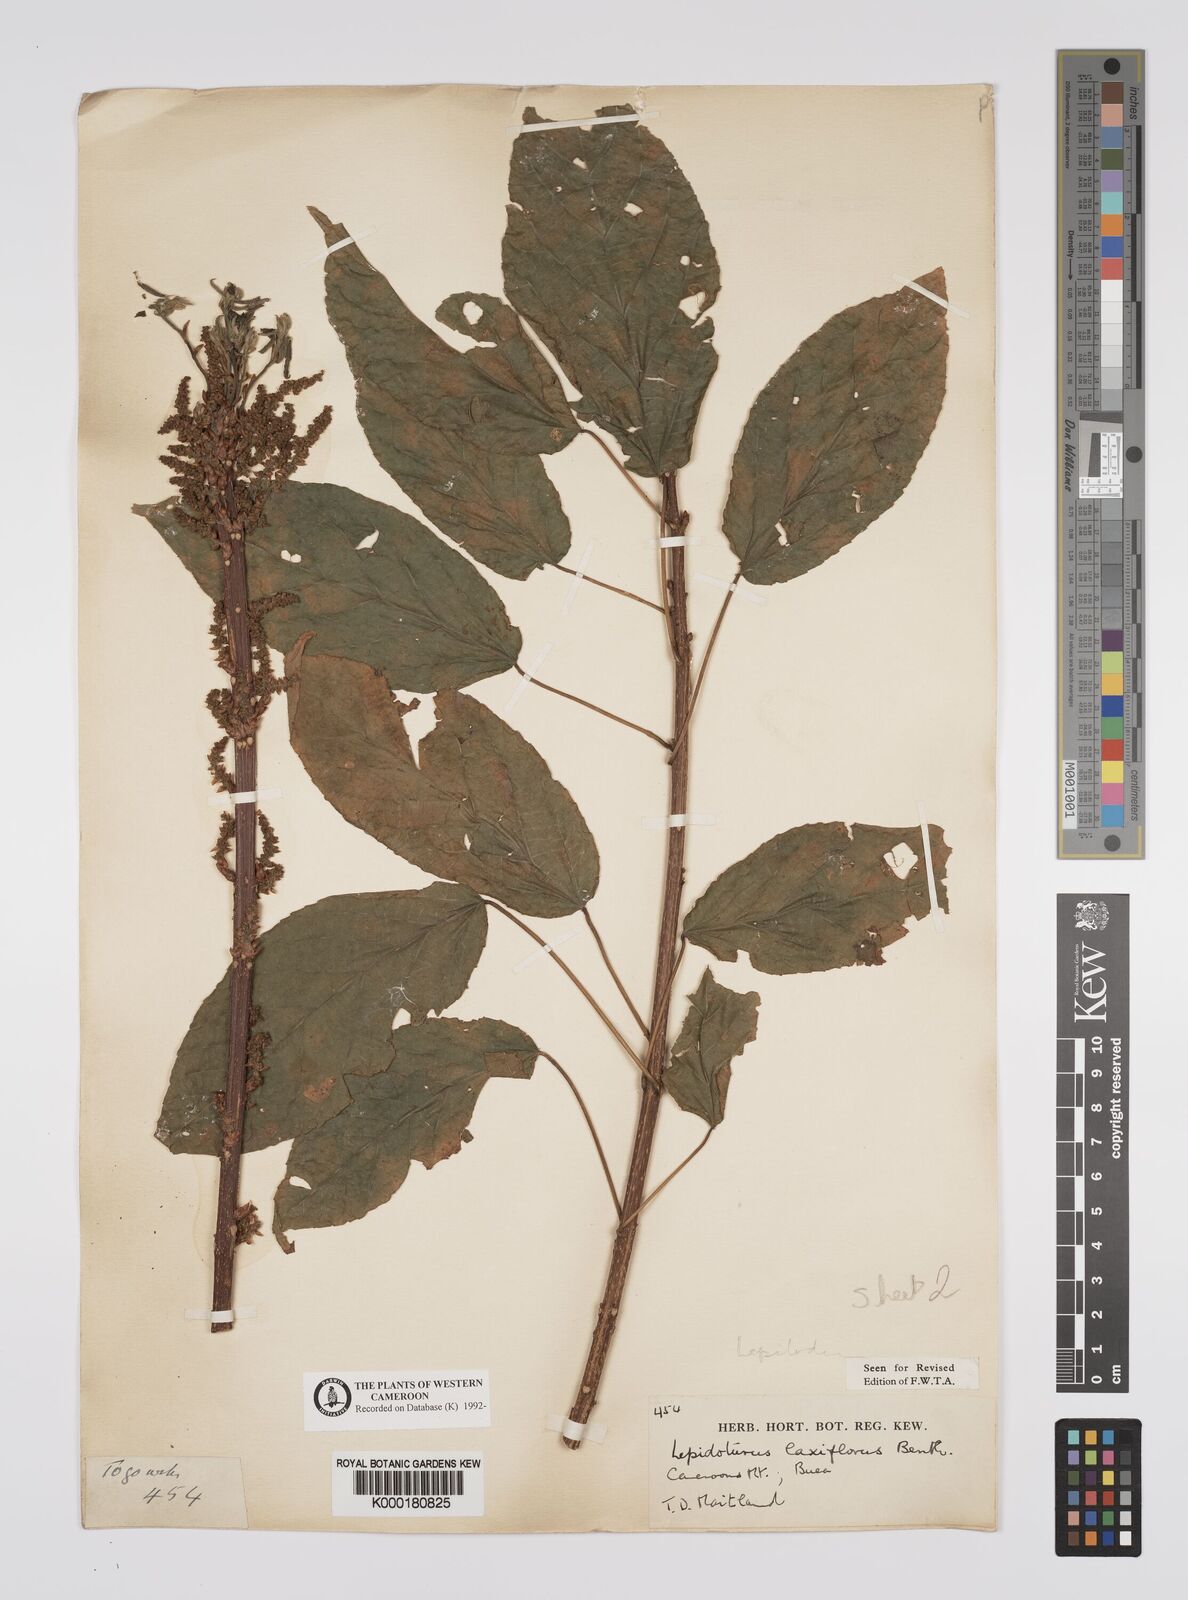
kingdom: Plantae
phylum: Tracheophyta
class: Magnoliopsida
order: Malpighiales
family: Euphorbiaceae
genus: Alchornea
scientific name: Alchornea laxiflora
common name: Lowveld bead-string
